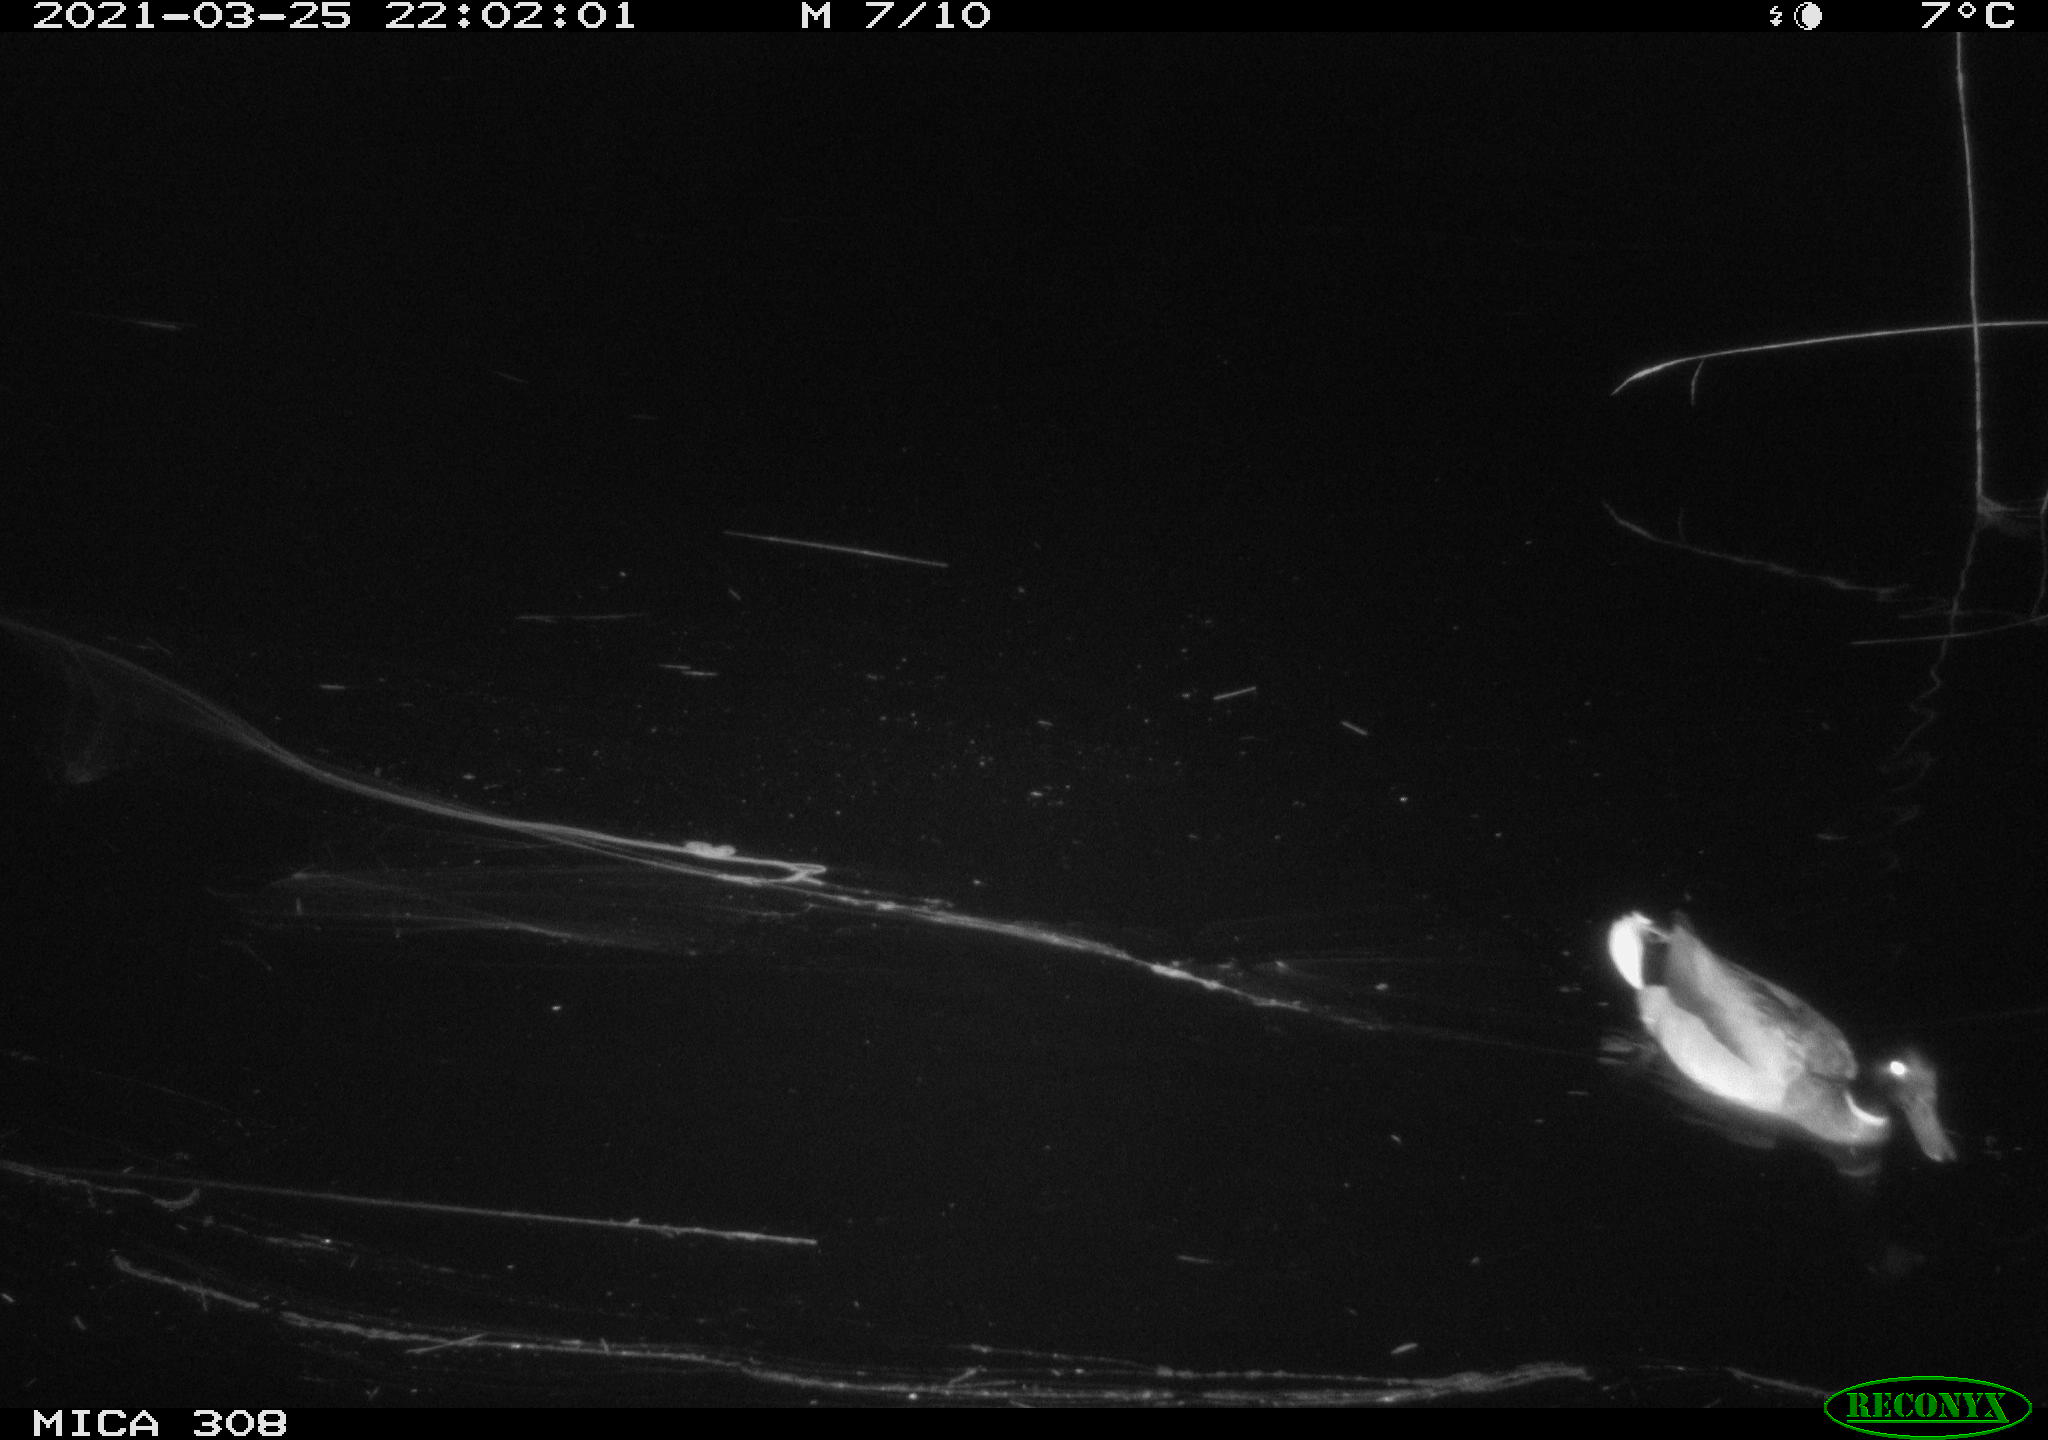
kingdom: Animalia
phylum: Chordata
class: Aves
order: Anseriformes
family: Anatidae
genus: Anas
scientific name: Anas platyrhynchos
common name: Mallard
